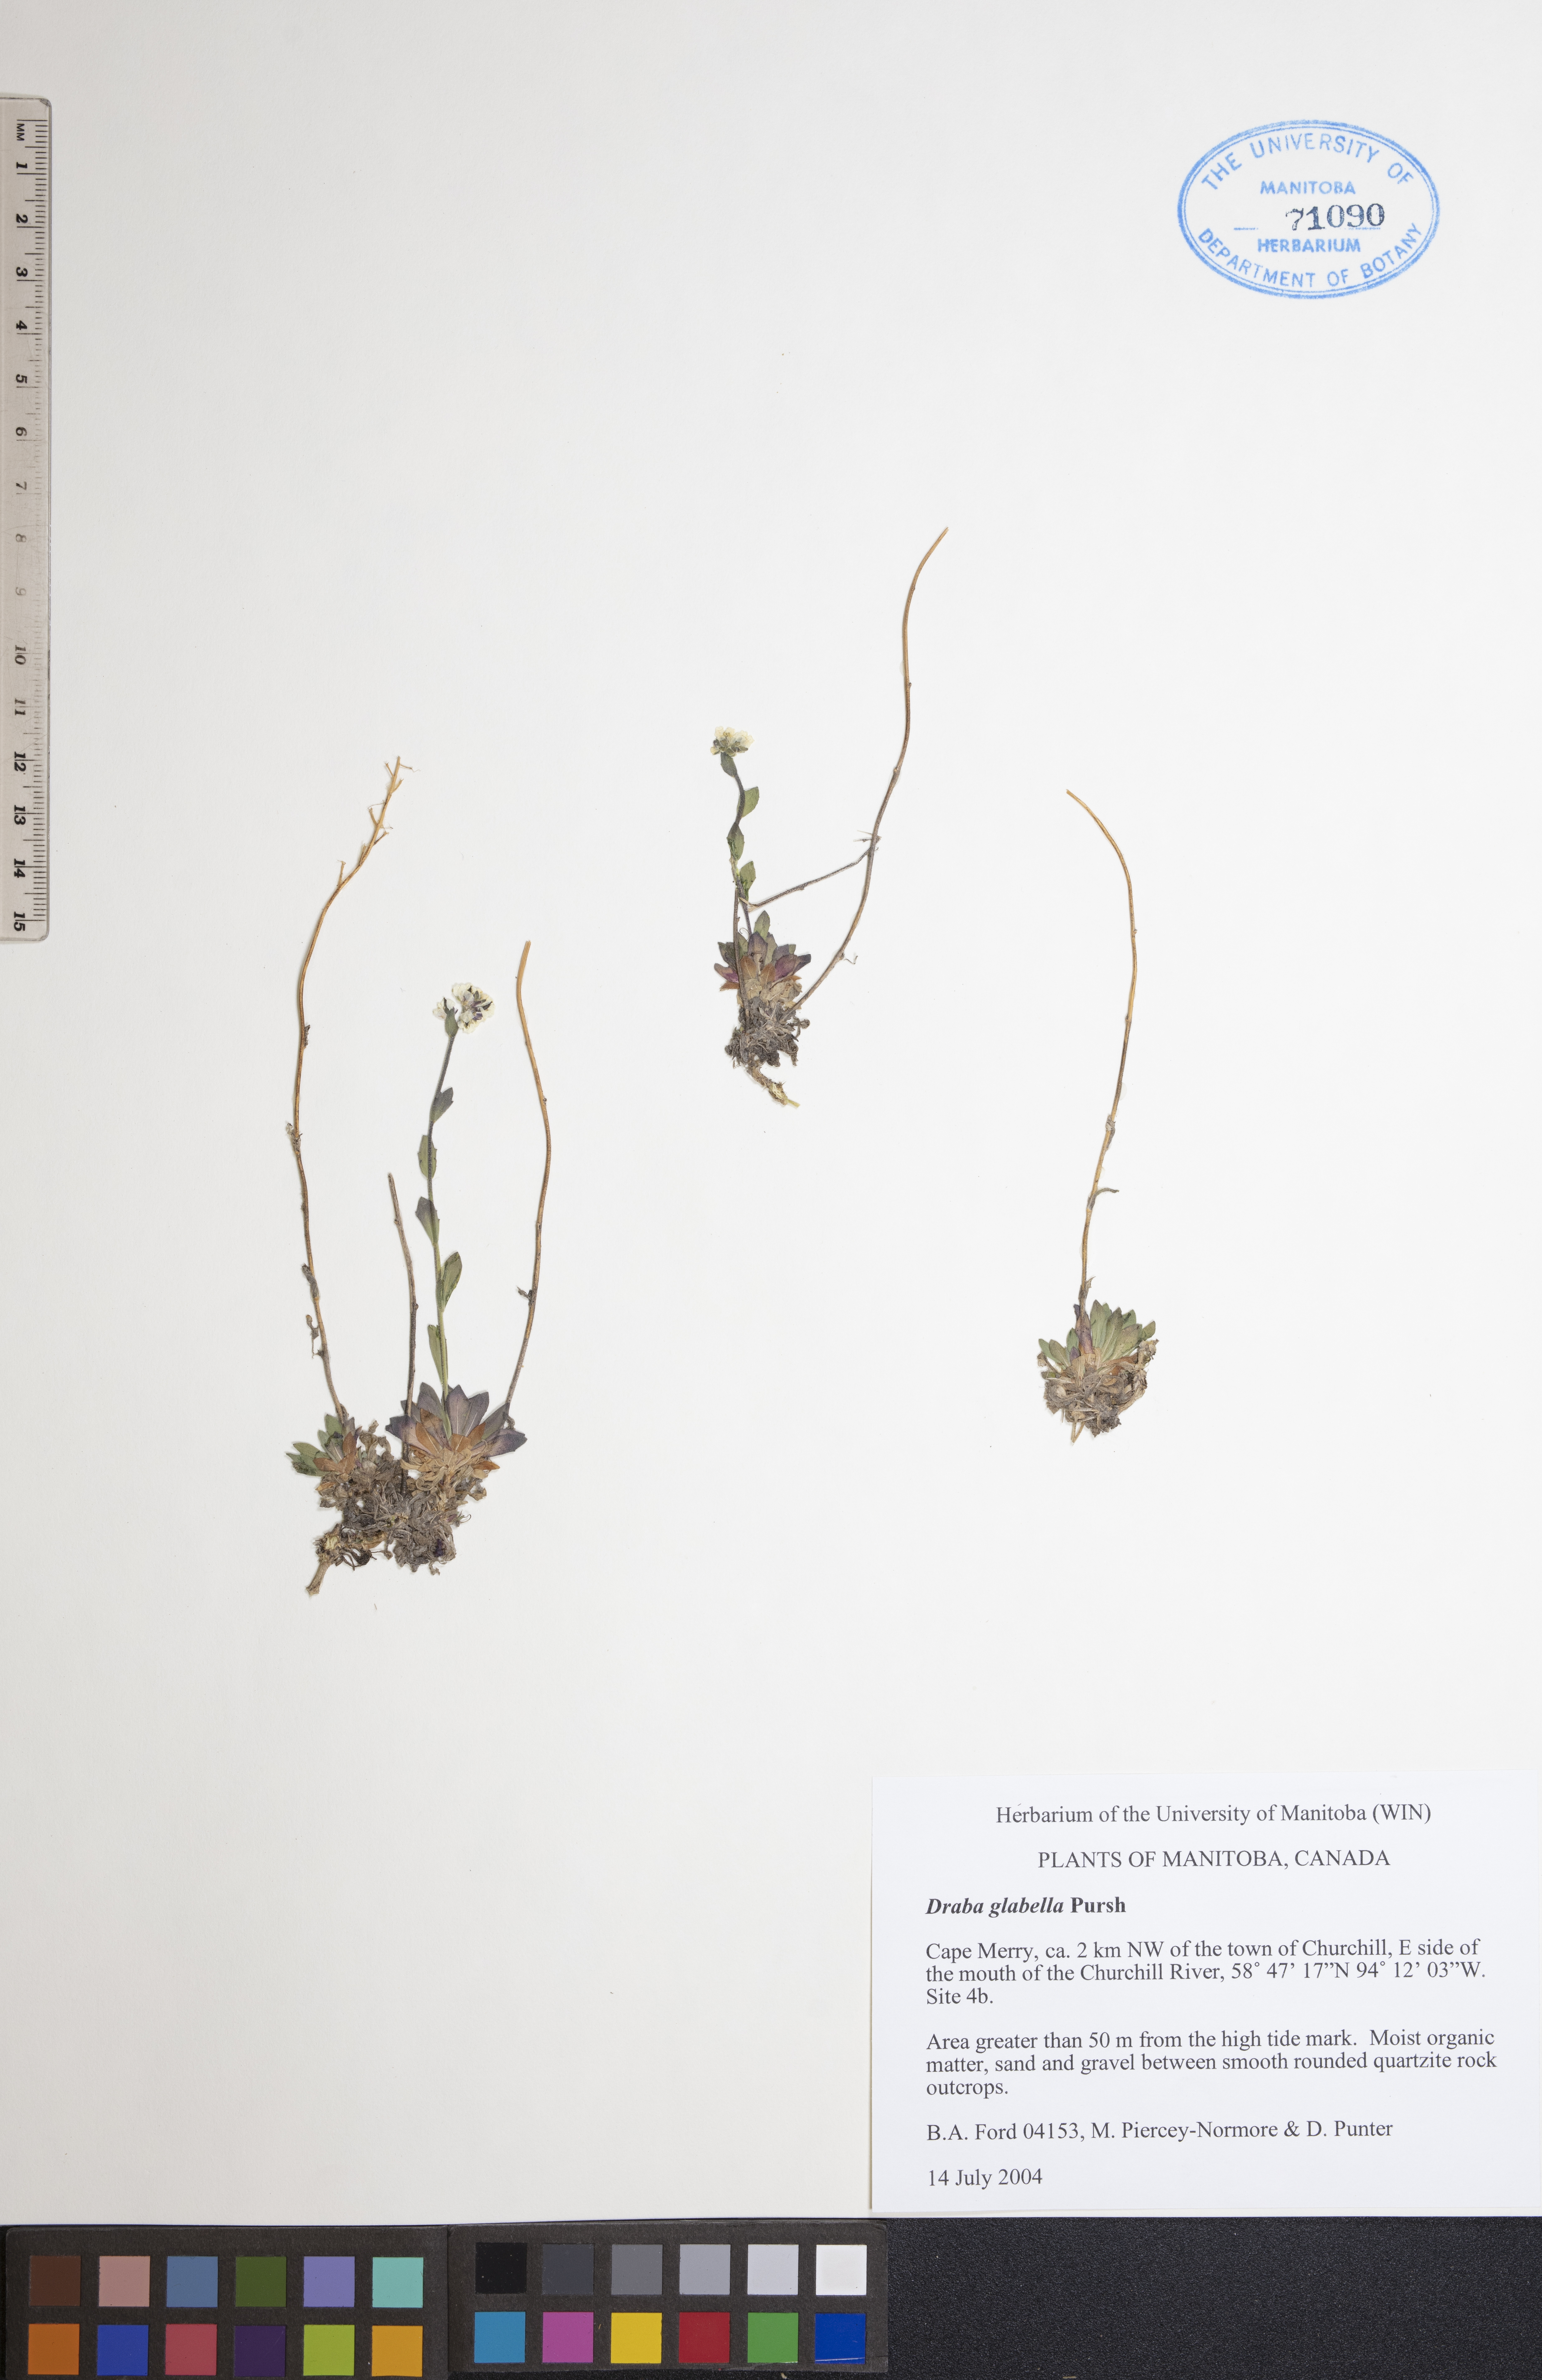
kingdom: Plantae
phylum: Tracheophyta
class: Magnoliopsida
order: Brassicales
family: Brassicaceae
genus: Draba
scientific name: Draba glabella
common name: Glaucous draba
